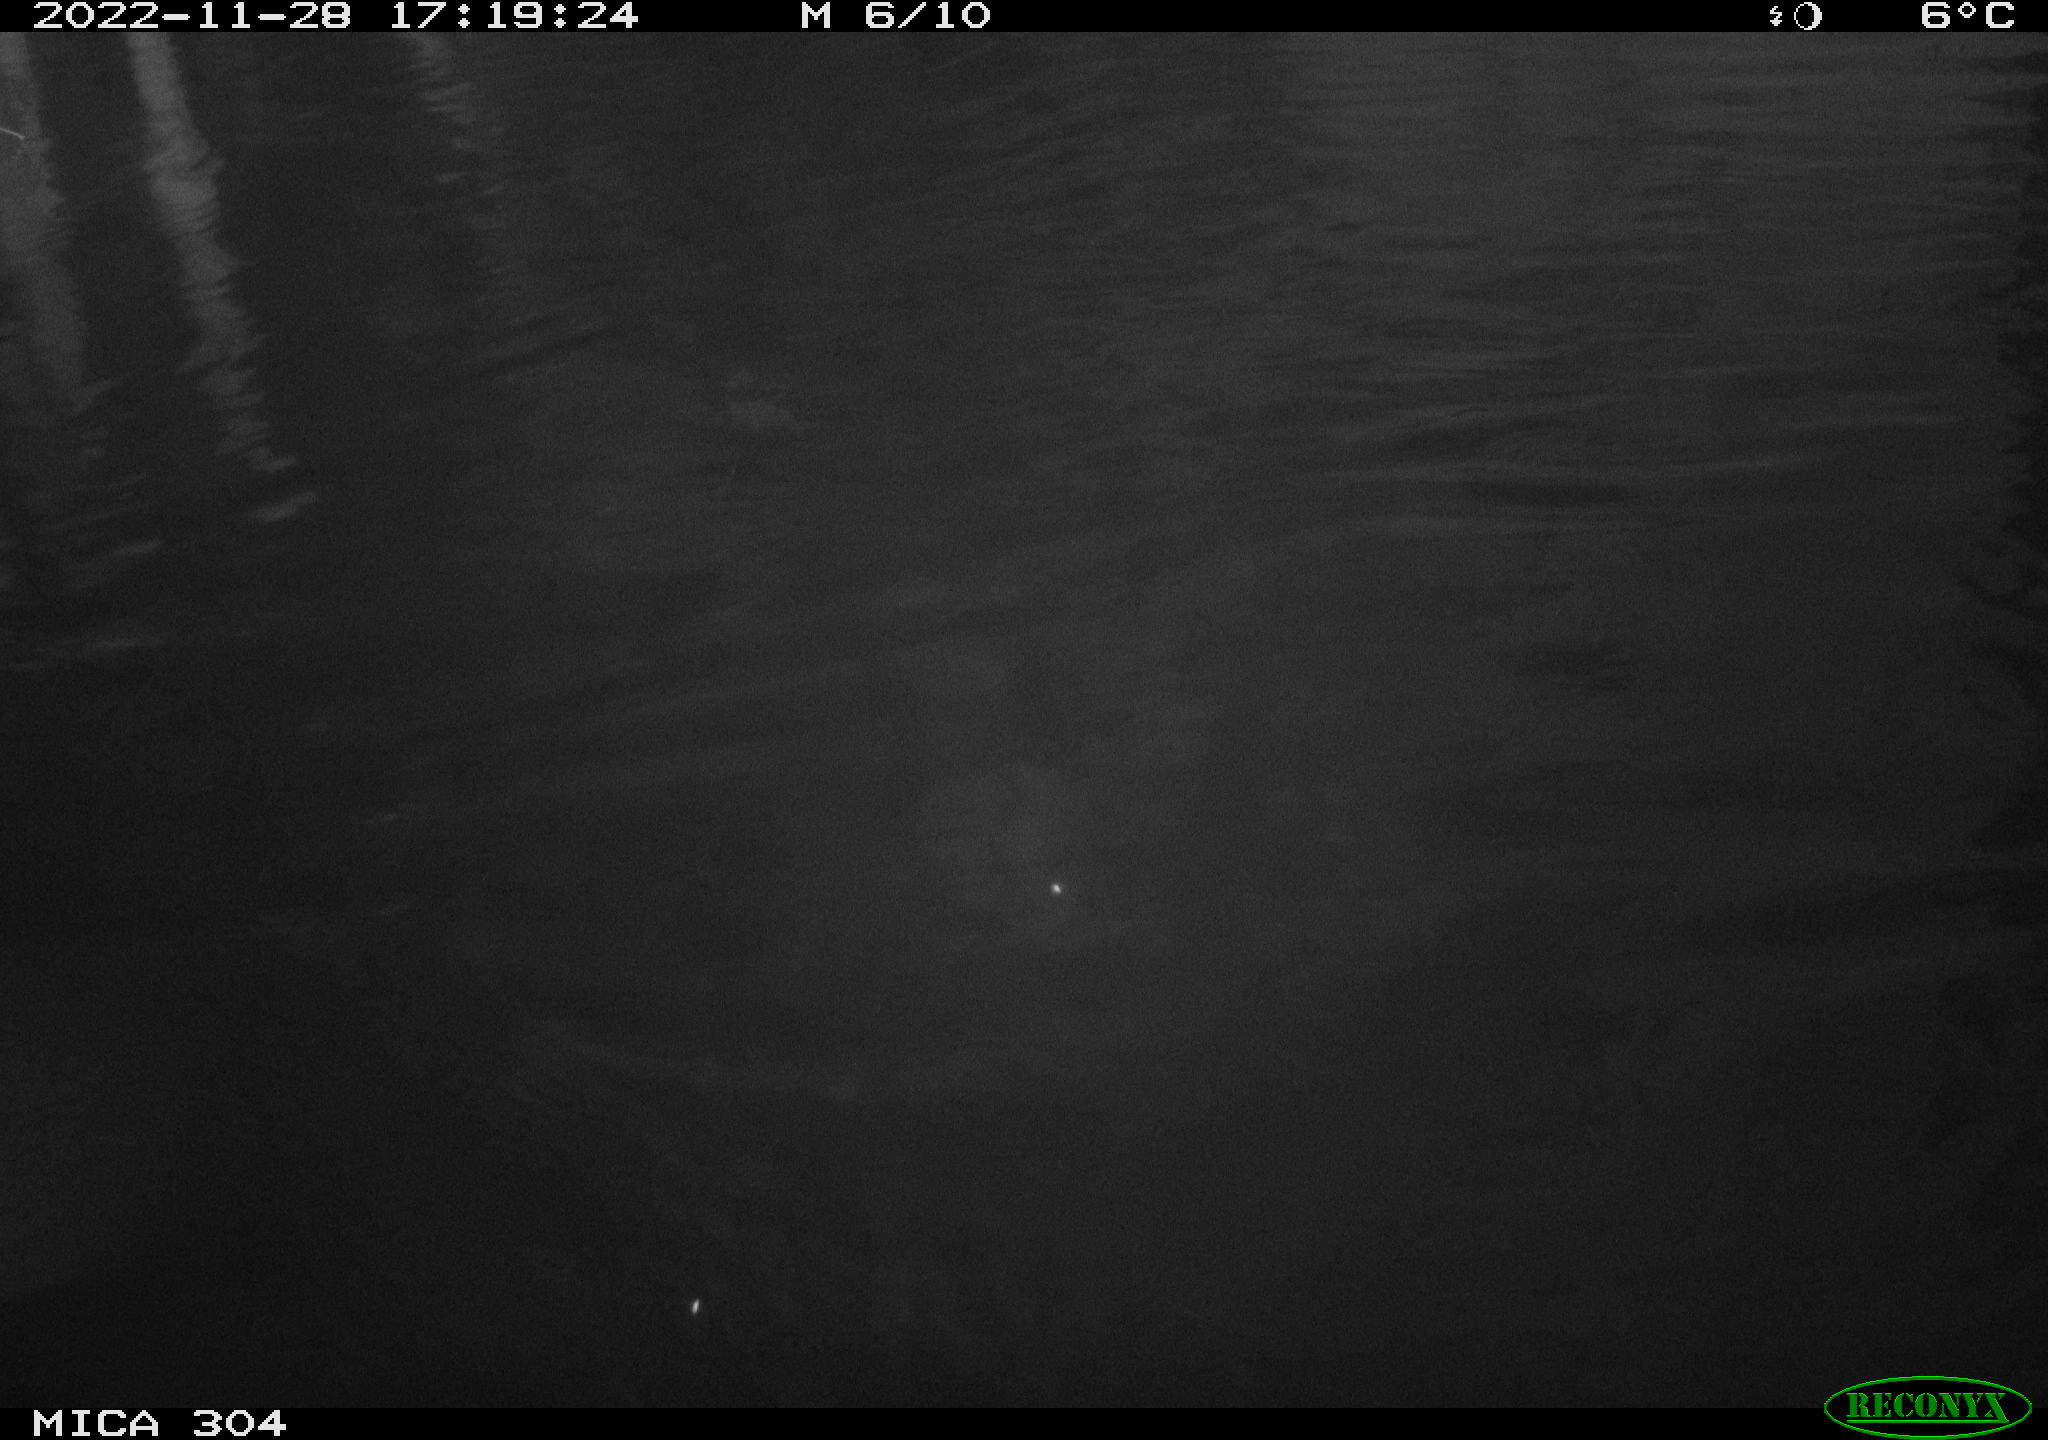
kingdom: Animalia
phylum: Chordata
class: Aves
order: Anseriformes
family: Anatidae
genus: Anas
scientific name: Anas
